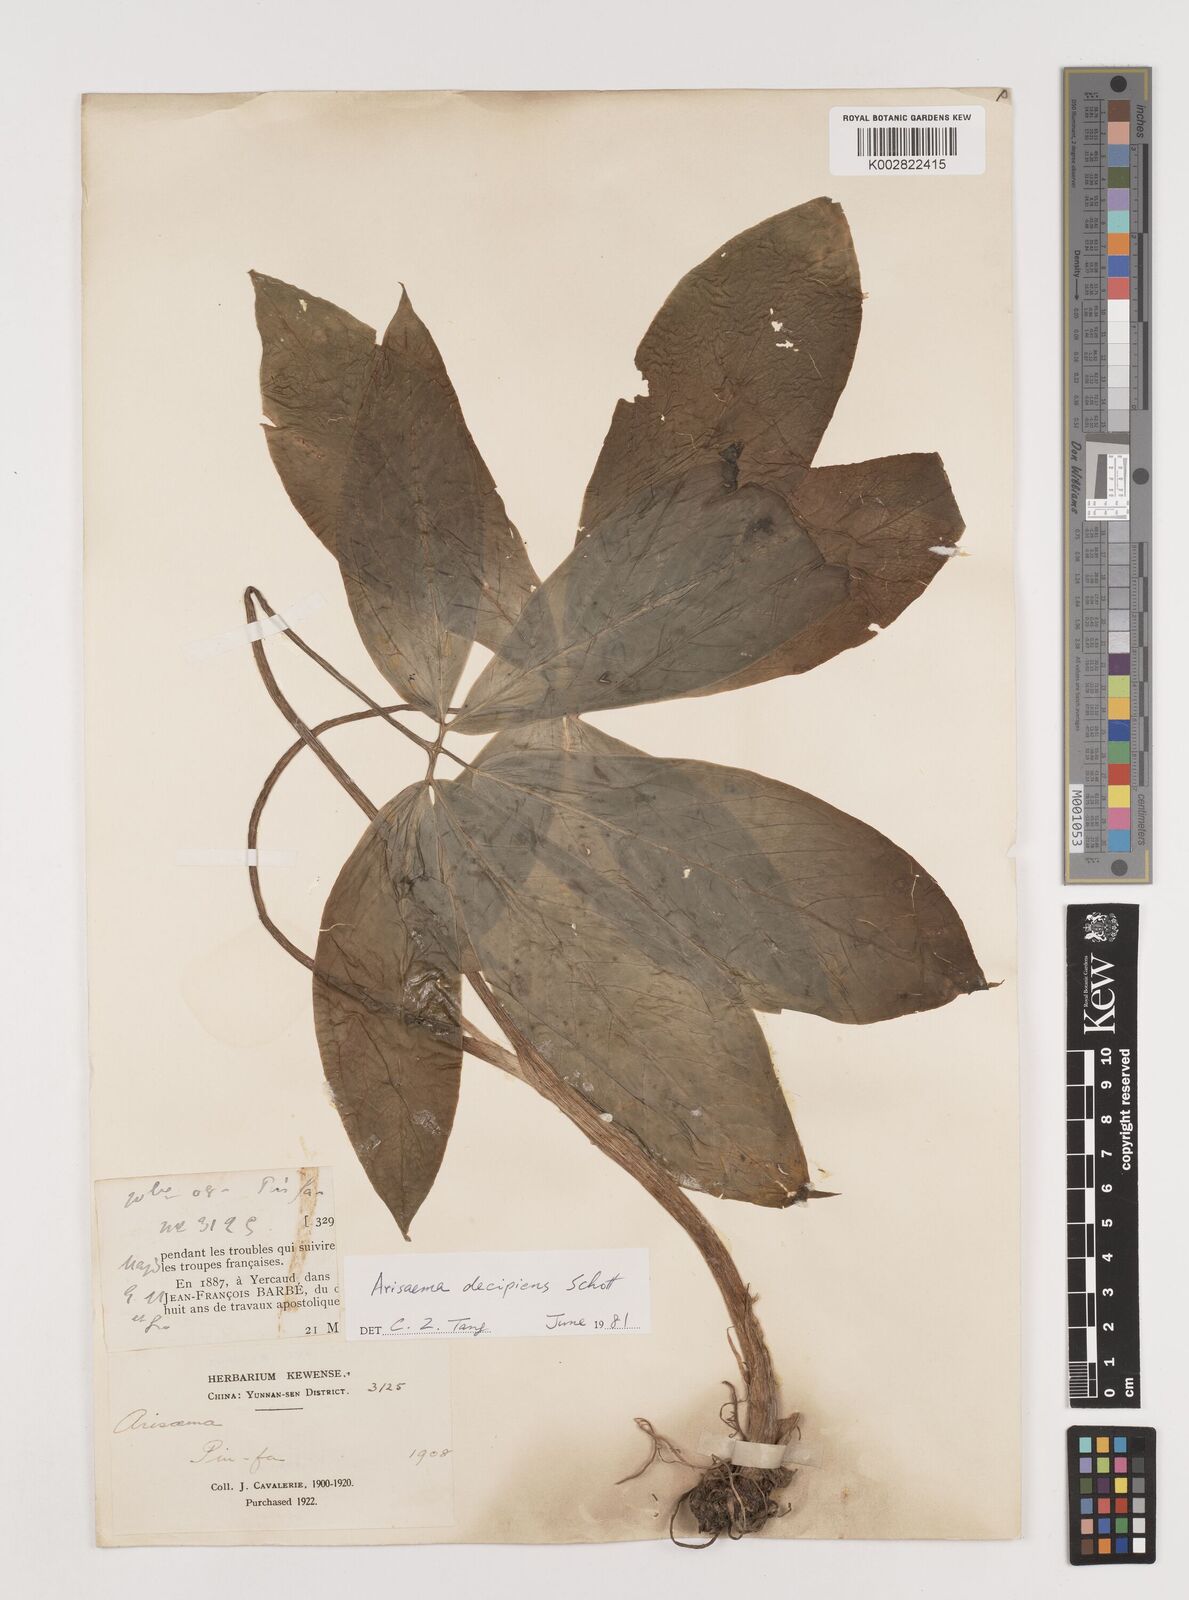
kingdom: Plantae
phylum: Tracheophyta
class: Liliopsida
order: Alismatales
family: Araceae
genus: Arisaema
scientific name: Arisaema decipiens
